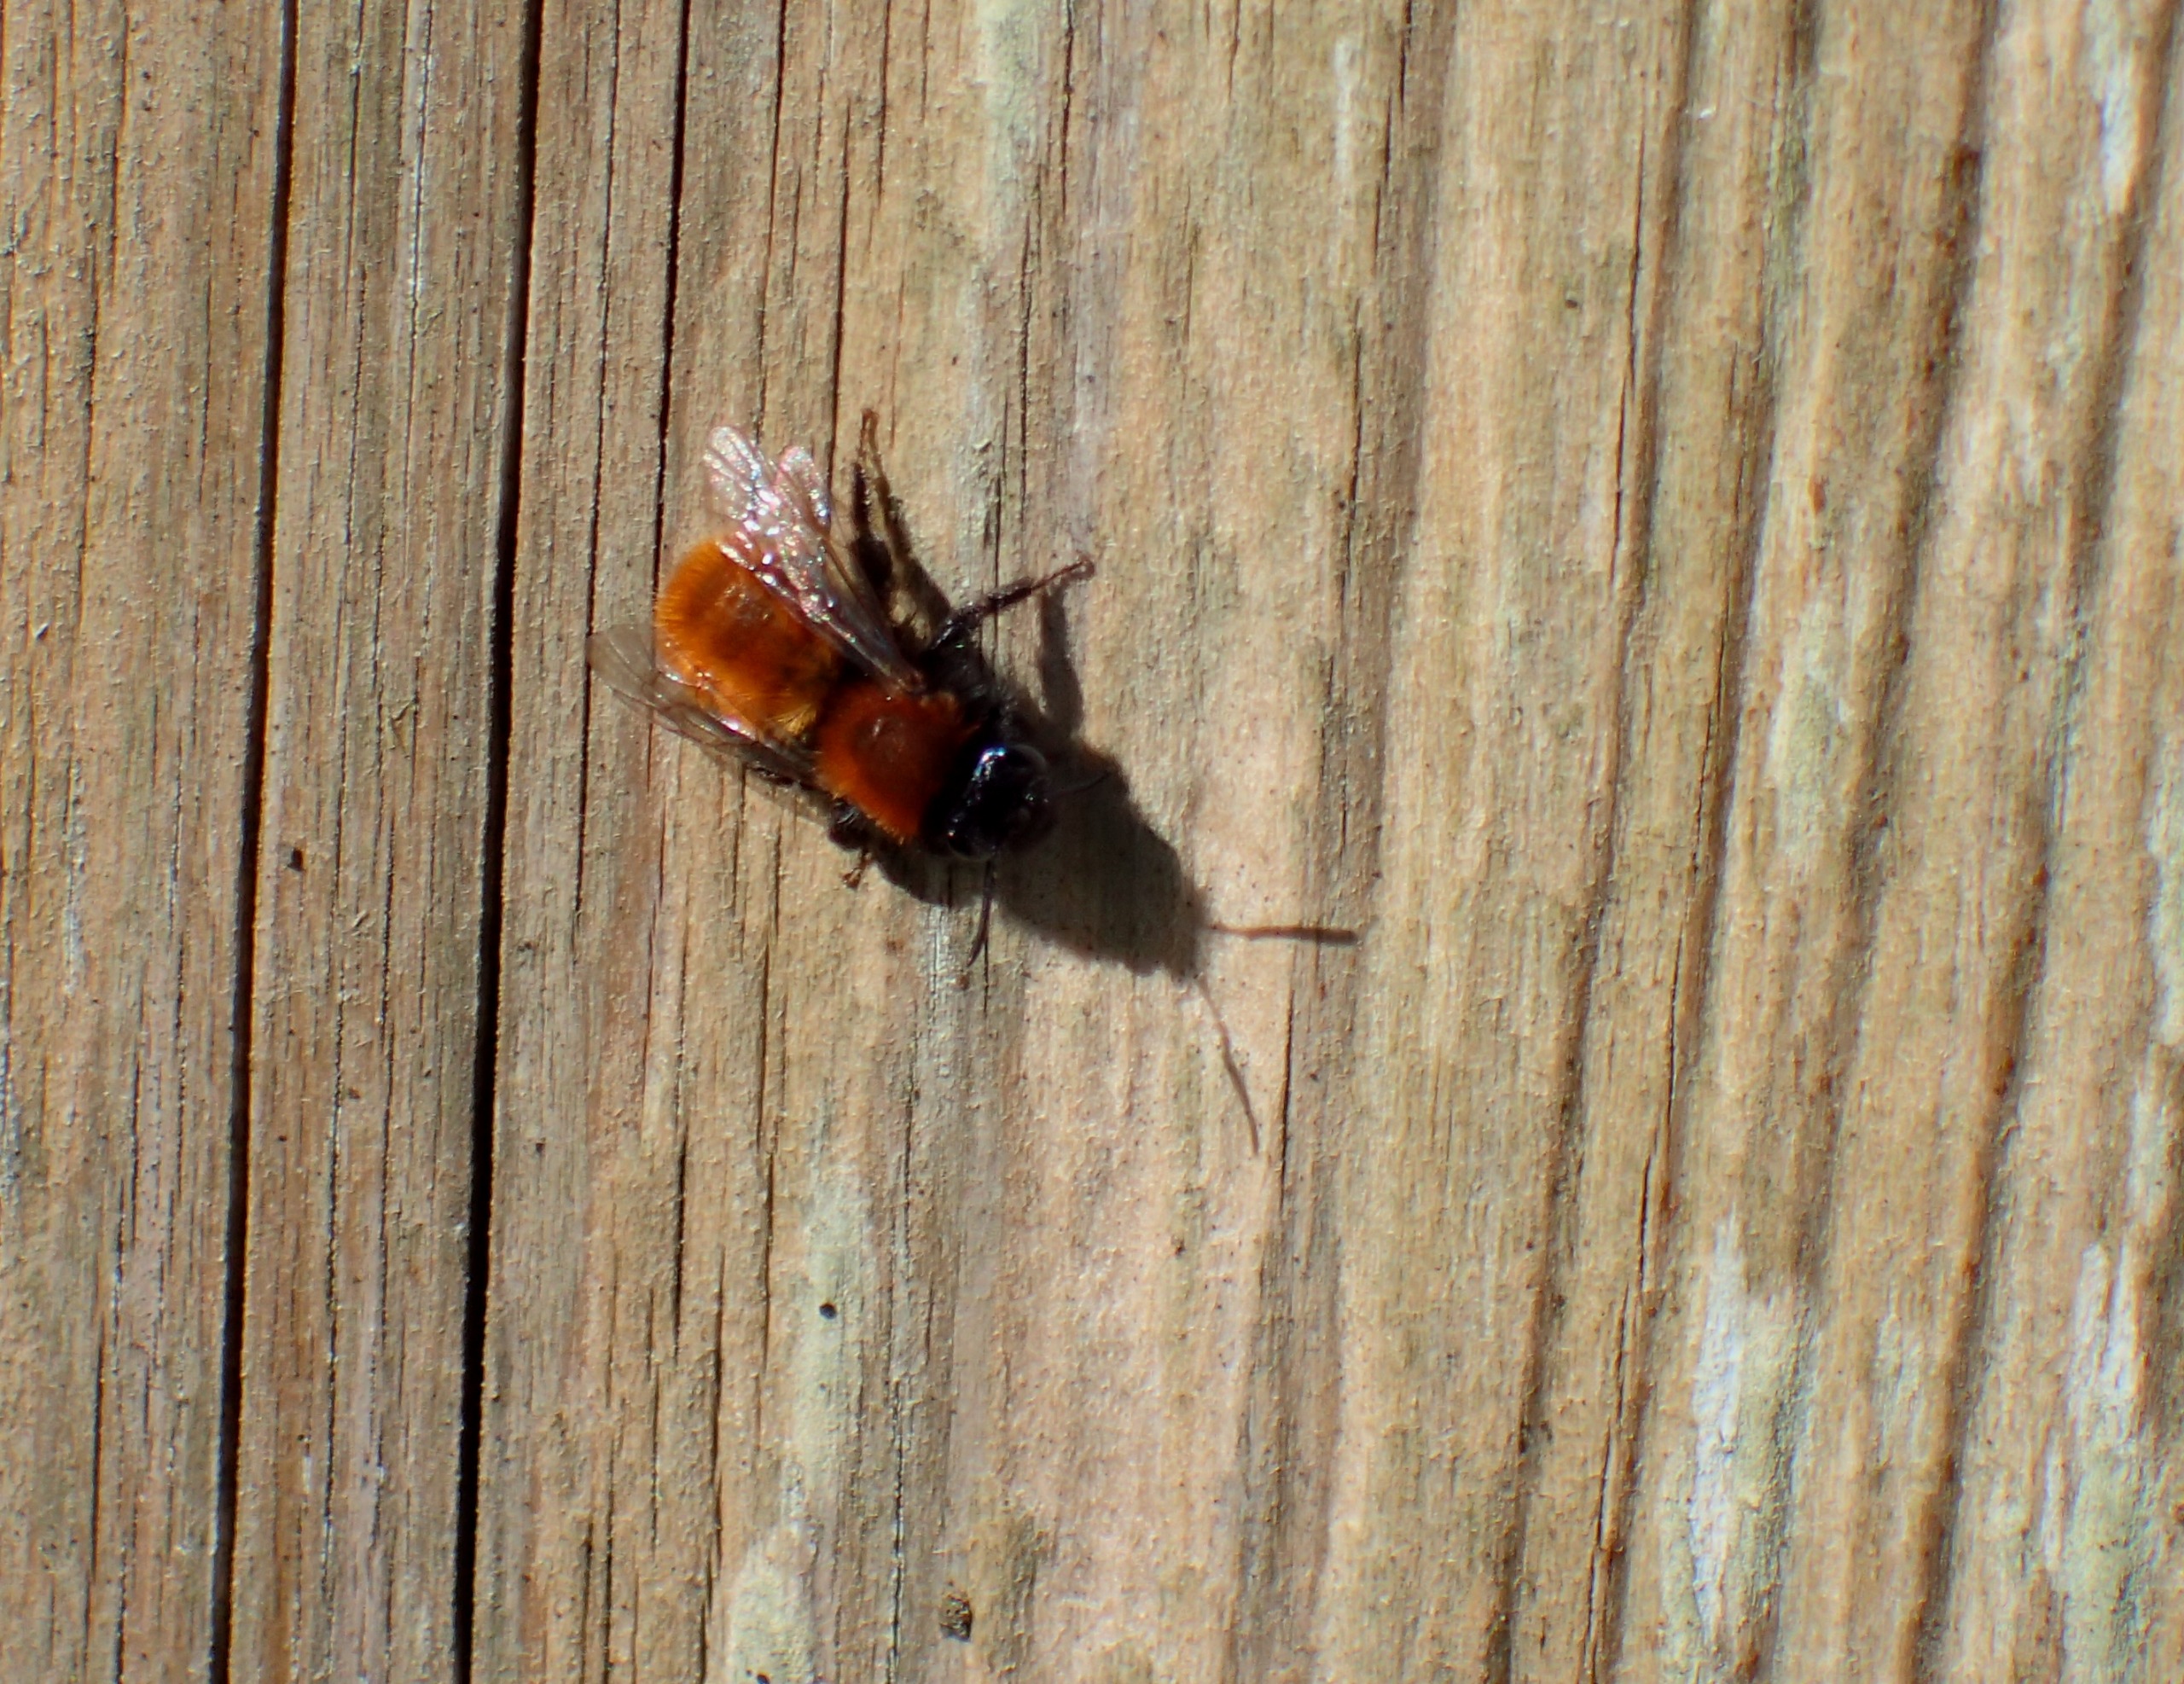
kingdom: Animalia
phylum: Arthropoda
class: Insecta
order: Hymenoptera
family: Andrenidae
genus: Andrena
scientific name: Andrena fulva
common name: Rødpelset jordbi
